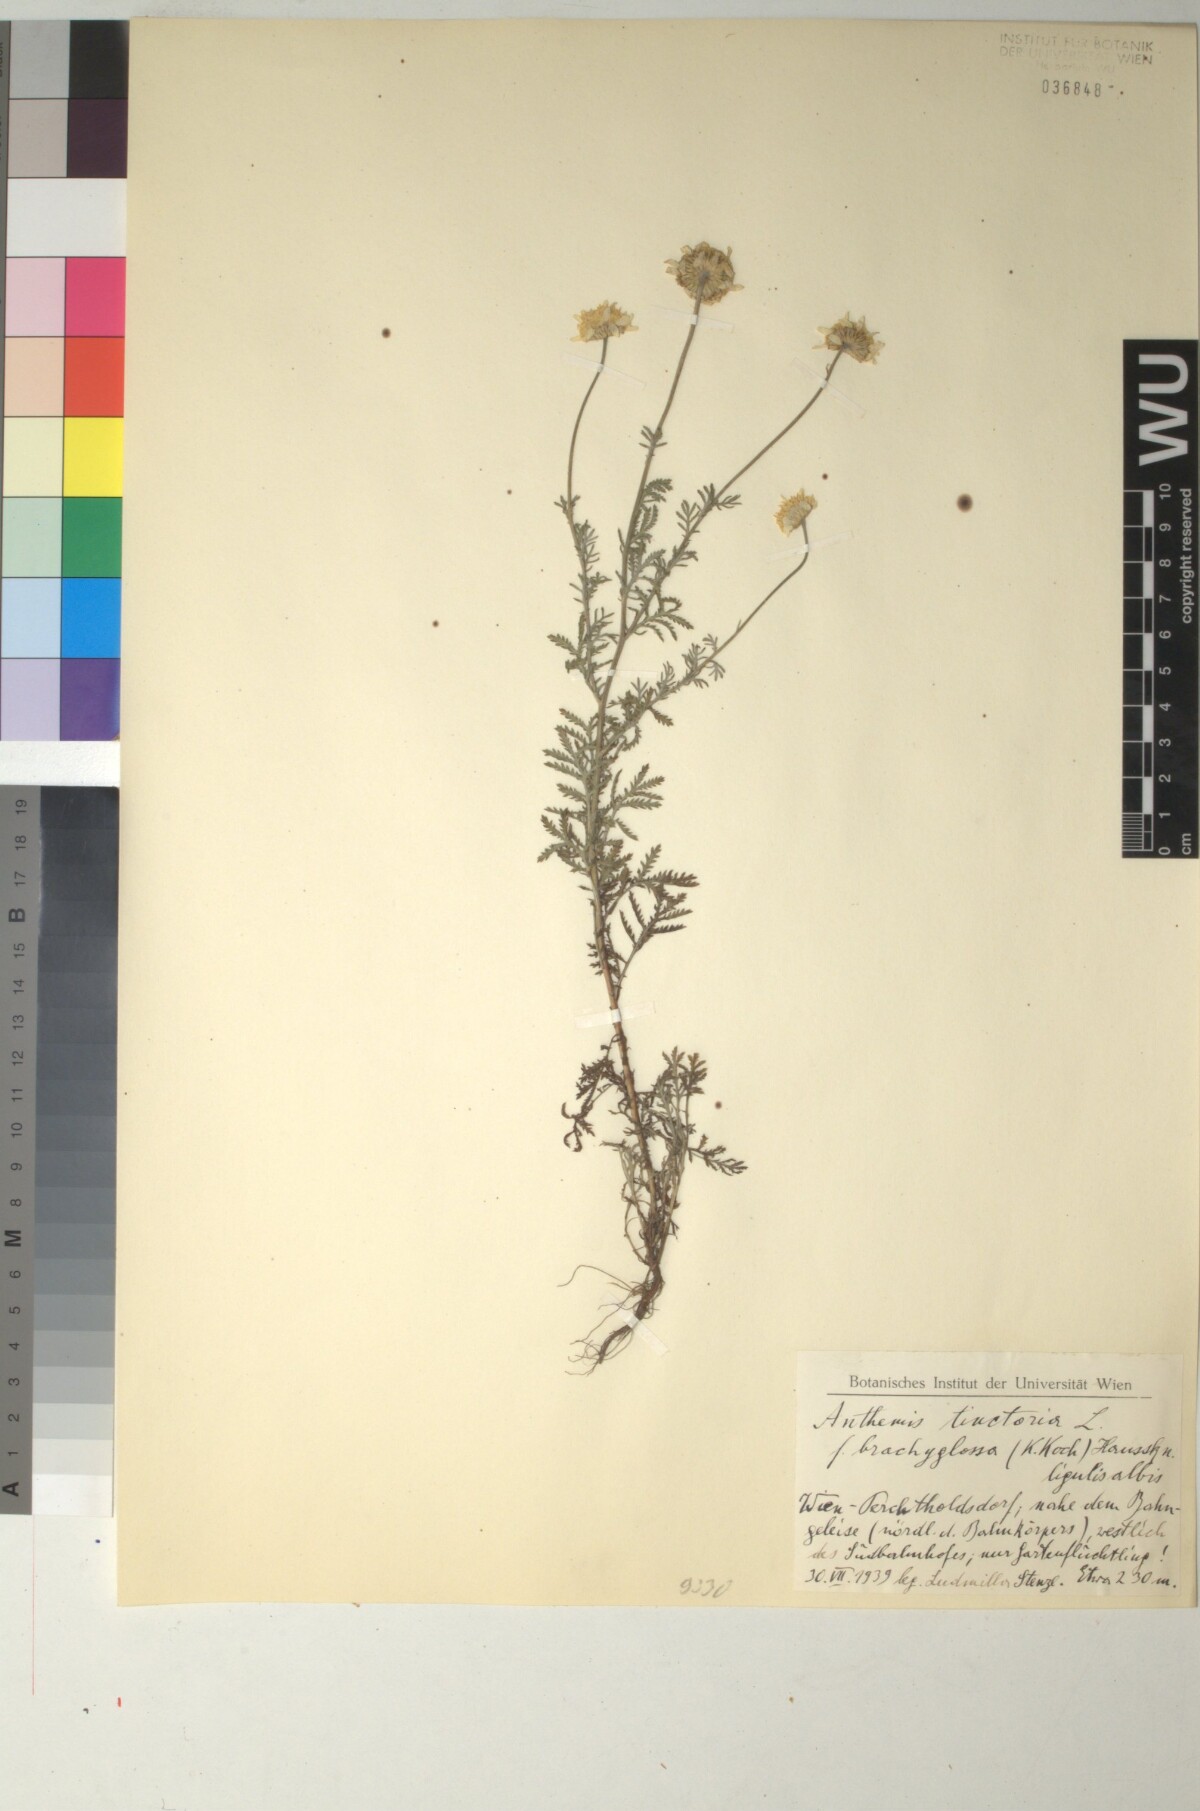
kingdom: Plantae
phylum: Tracheophyta
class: Magnoliopsida
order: Asterales
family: Asteraceae
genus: Cota
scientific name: Cota tinctoria
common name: Golden chamomile
